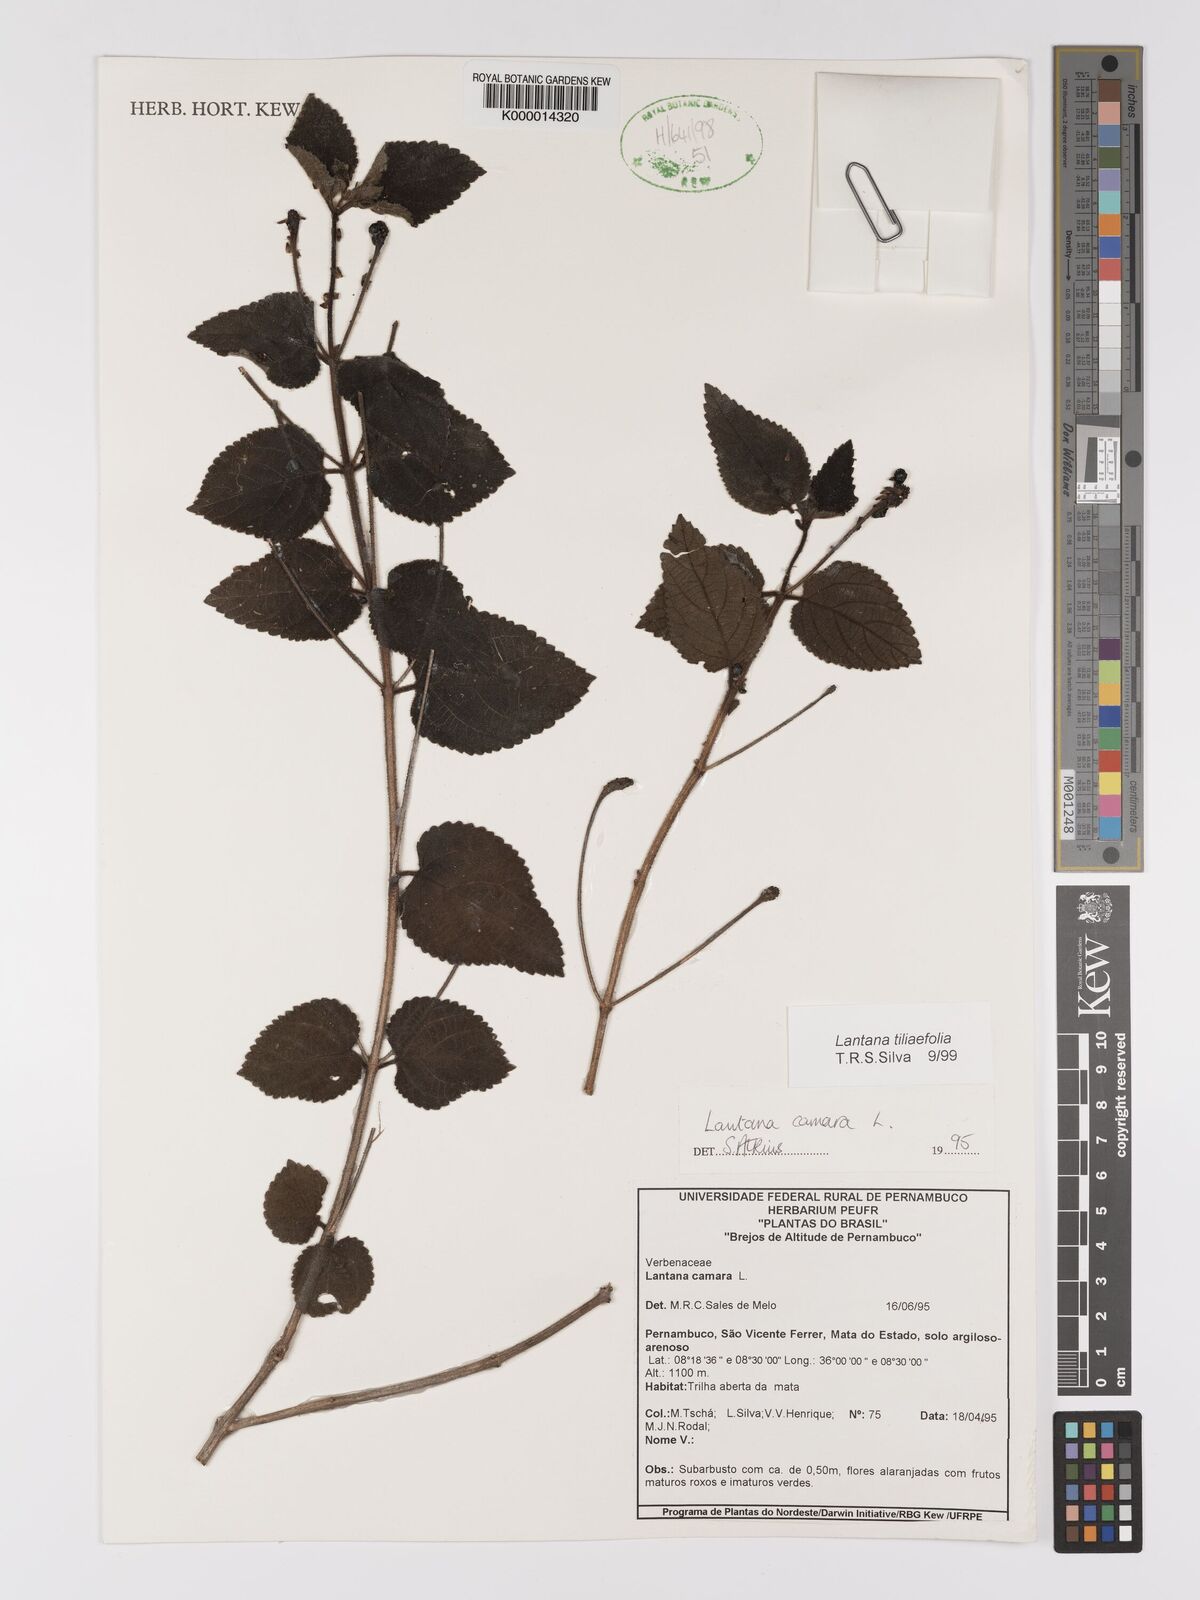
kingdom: Plantae
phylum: Tracheophyta
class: Magnoliopsida
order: Lamiales
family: Verbenaceae
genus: Lantana
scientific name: Lantana
